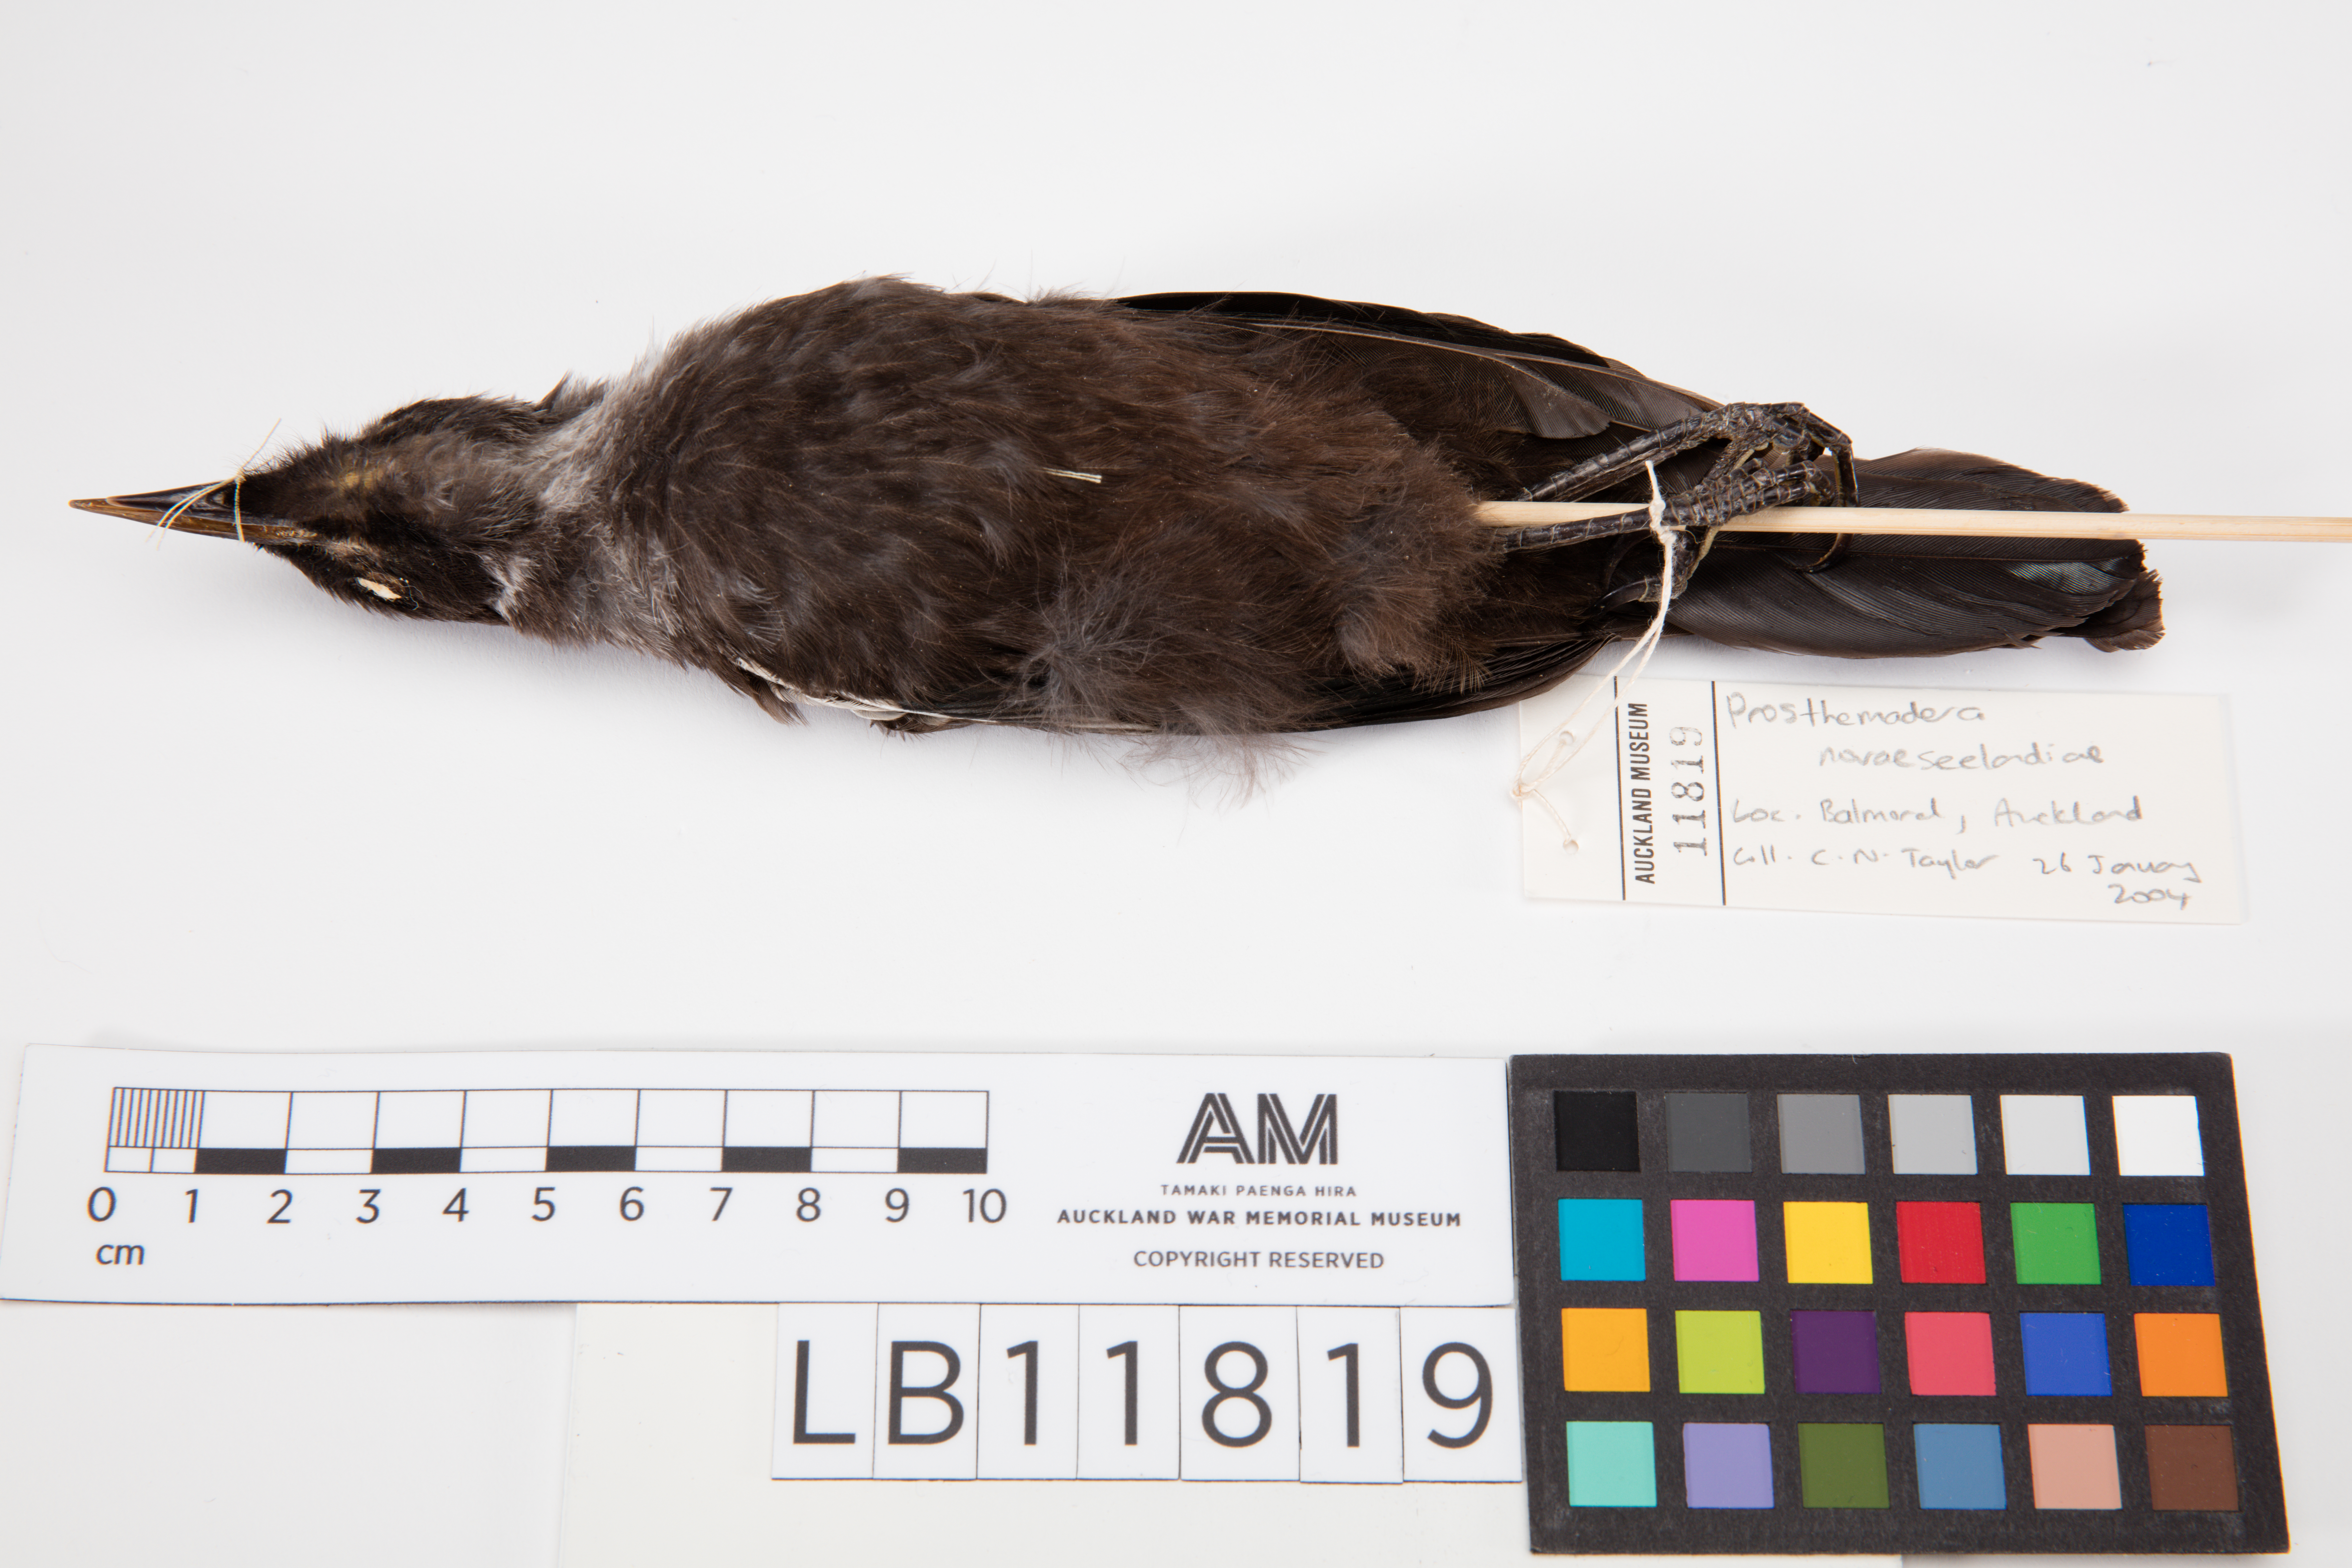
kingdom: Animalia
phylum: Chordata
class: Aves
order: Passeriformes
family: Meliphagidae
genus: Prosthemadera
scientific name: Prosthemadera novaeseelandiae
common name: Tui
